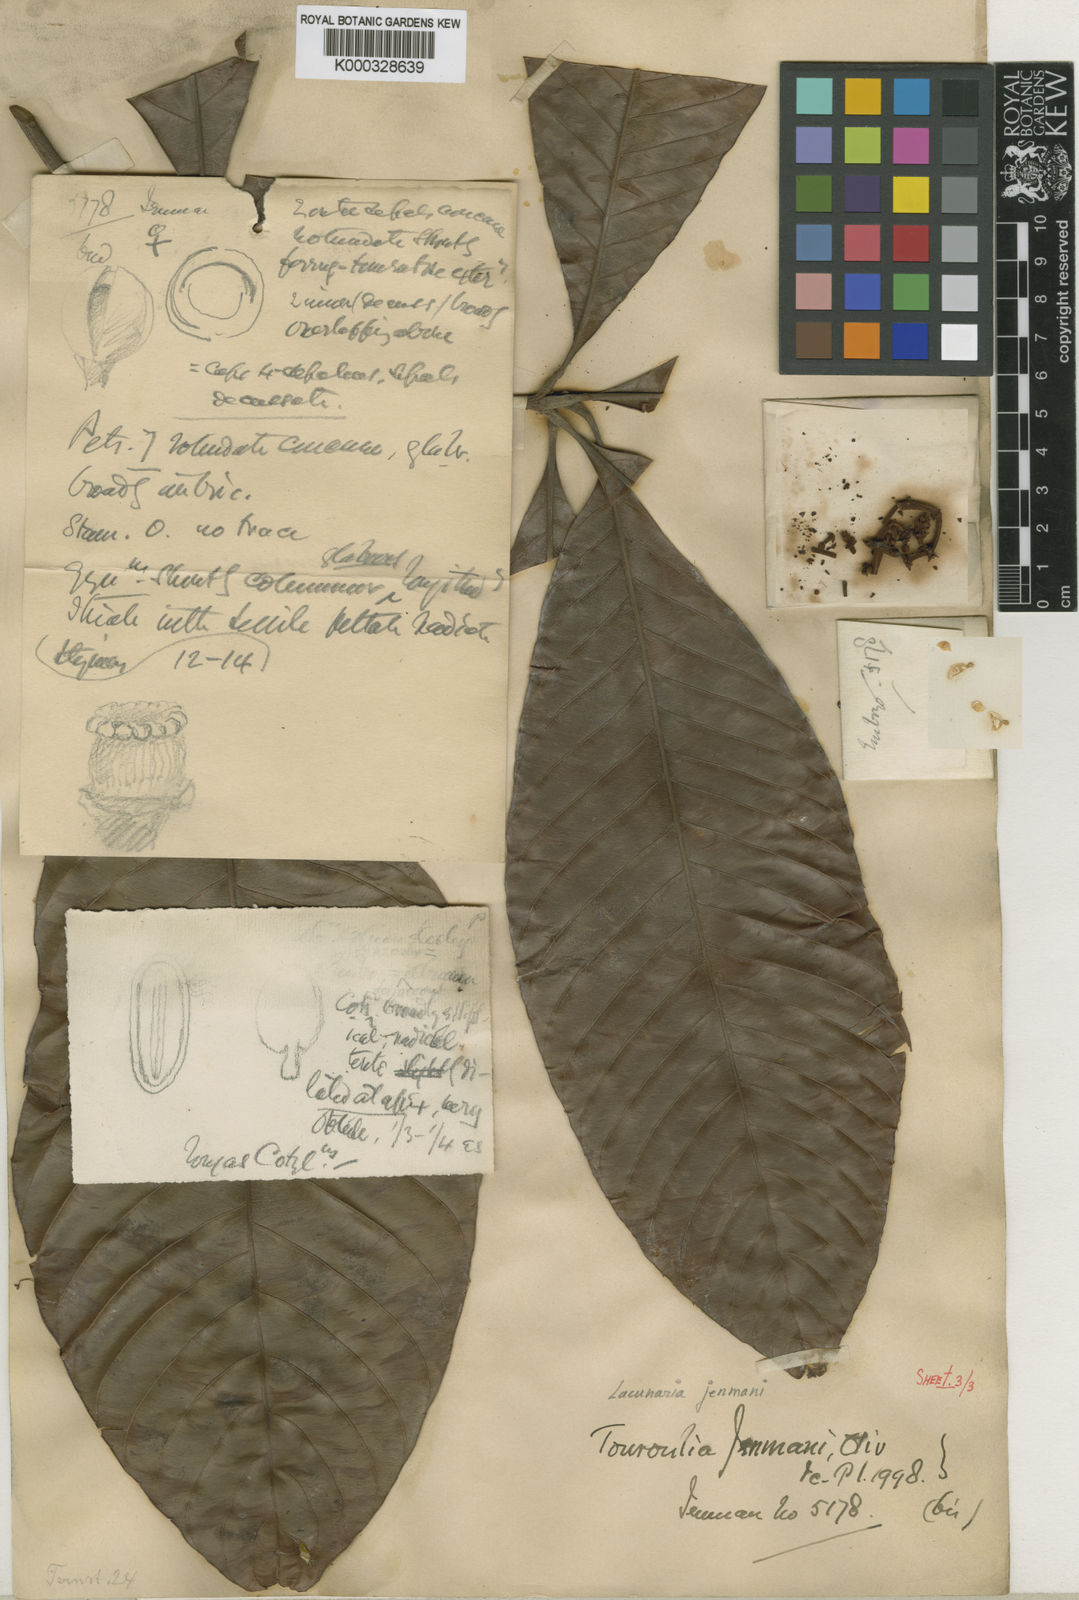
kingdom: Plantae
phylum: Tracheophyta
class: Magnoliopsida
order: Malpighiales
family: Quiinaceae
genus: Lacunaria
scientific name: Lacunaria jenmanii
